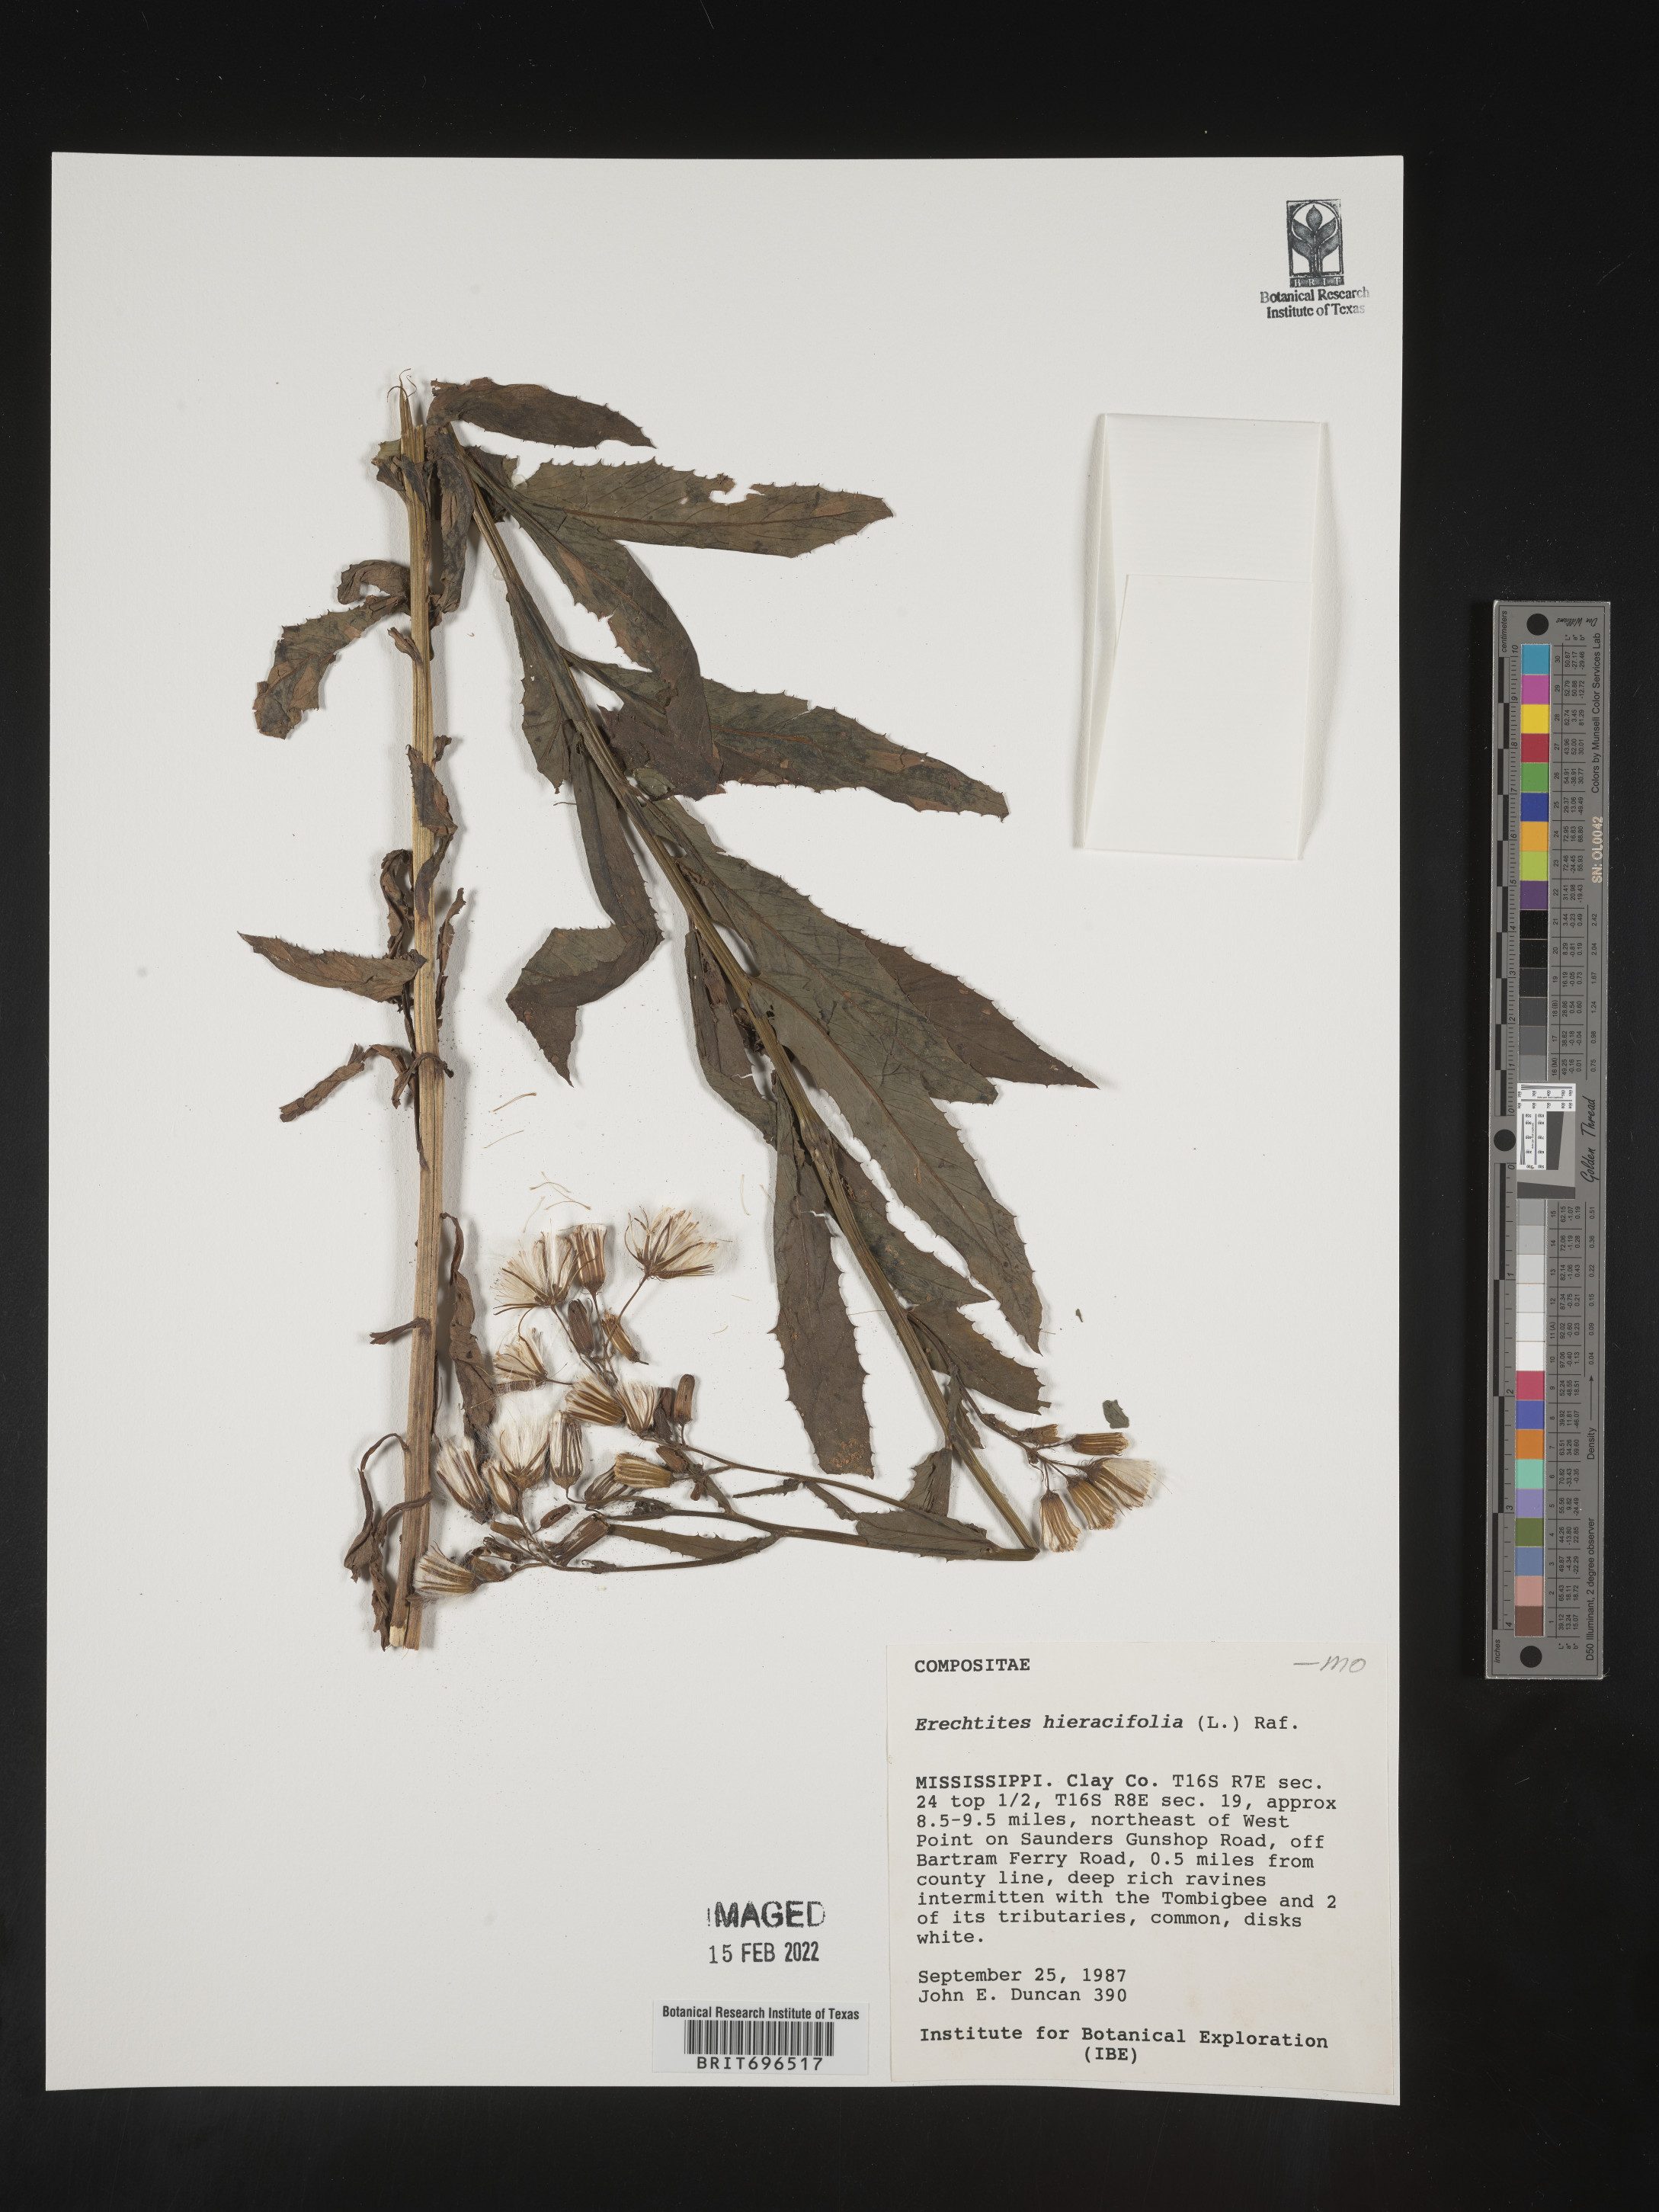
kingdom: Plantae
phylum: Tracheophyta
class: Magnoliopsida
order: Asterales
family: Asteraceae
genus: Erechtites
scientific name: Erechtites hieraciifolius
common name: American burnweed
